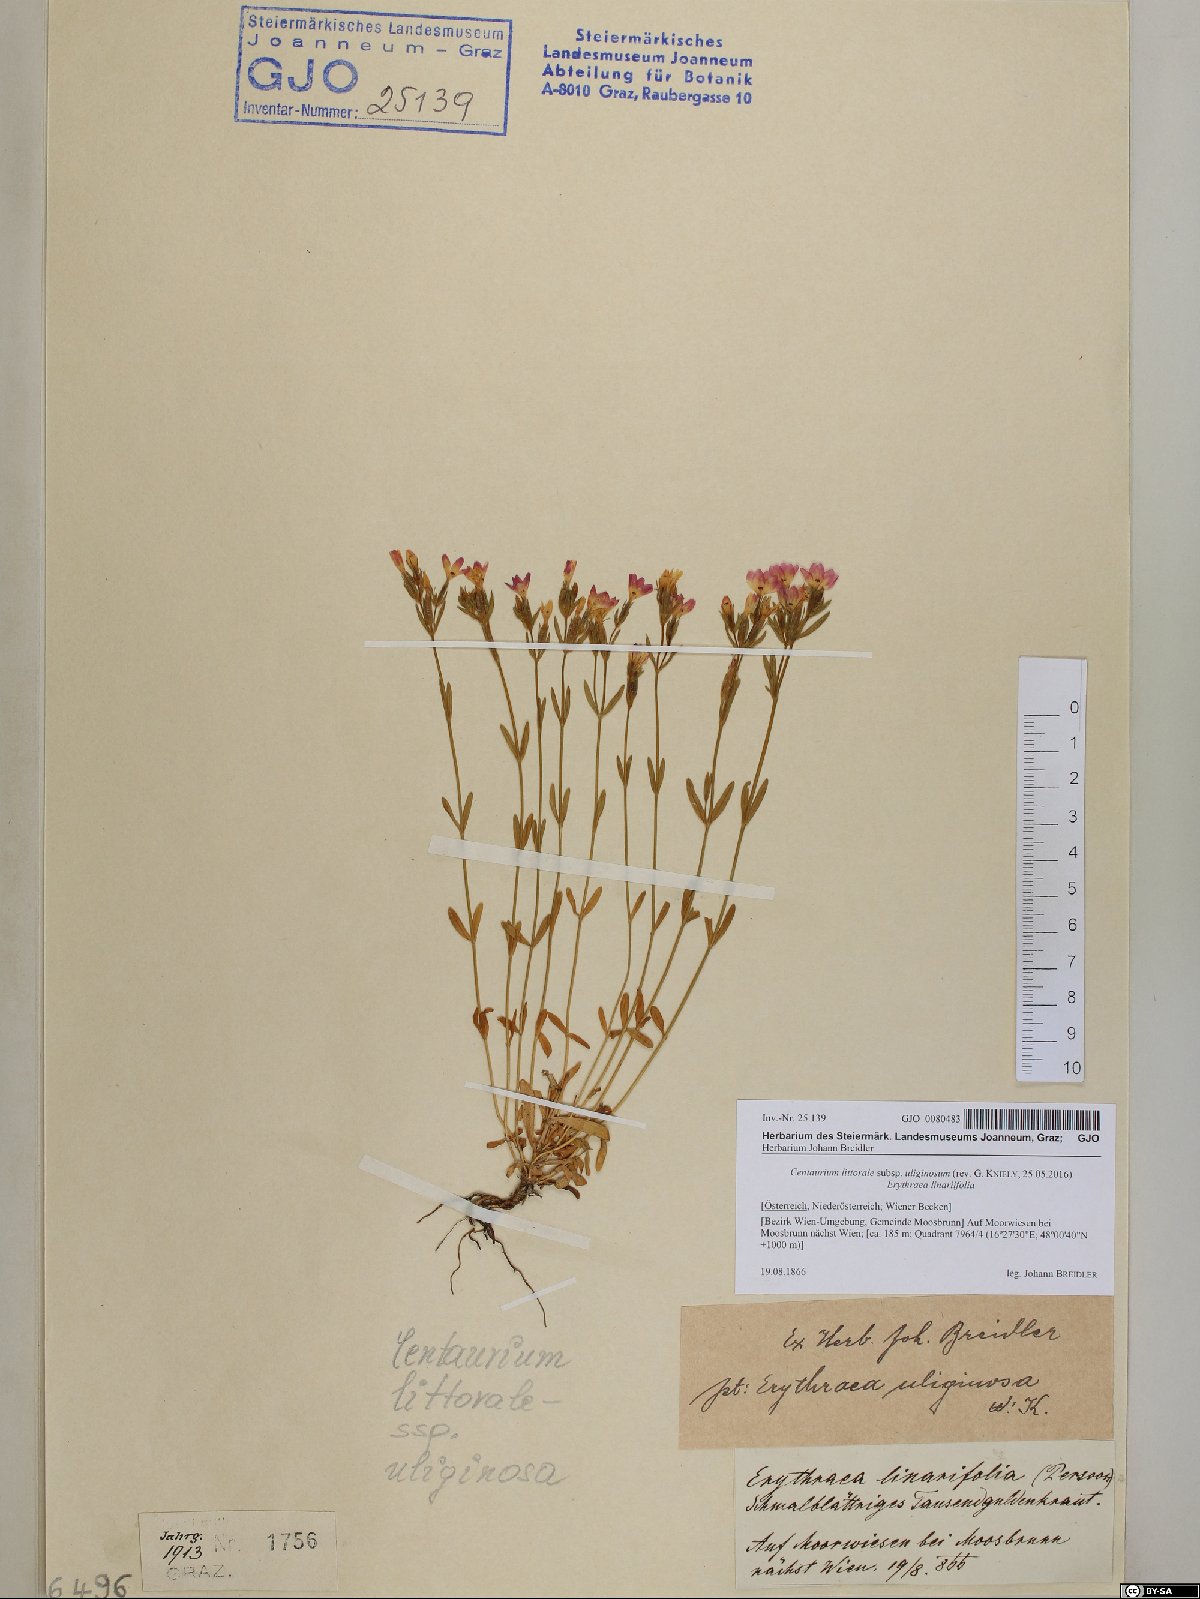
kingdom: Plantae
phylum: Tracheophyta
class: Magnoliopsida
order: Gentianales
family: Gentianaceae
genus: Centaurium
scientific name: Centaurium littorale
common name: Seaside centaury
